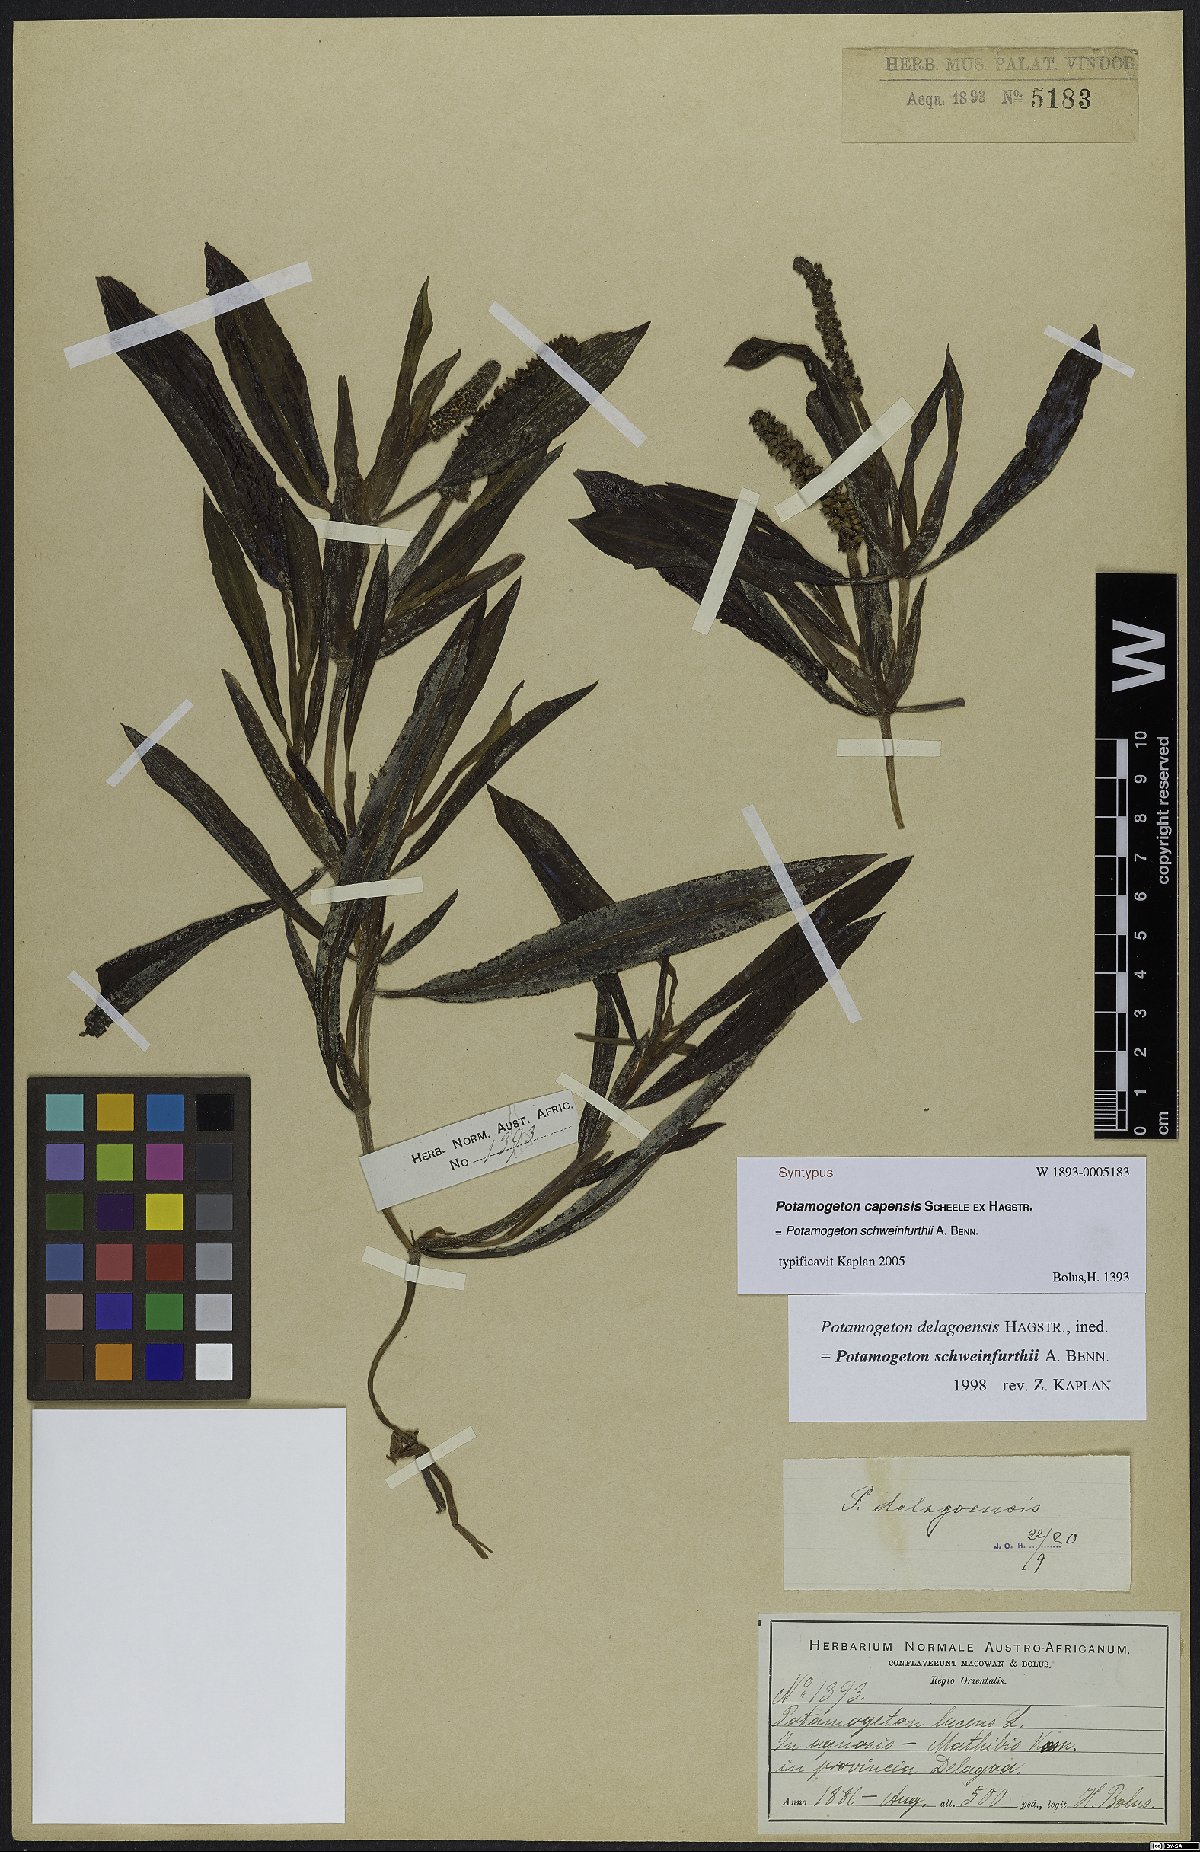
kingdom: Plantae
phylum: Tracheophyta
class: Liliopsida
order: Alismatales
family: Potamogetonaceae
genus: Potamogeton
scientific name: Potamogeton schweinfurthii
